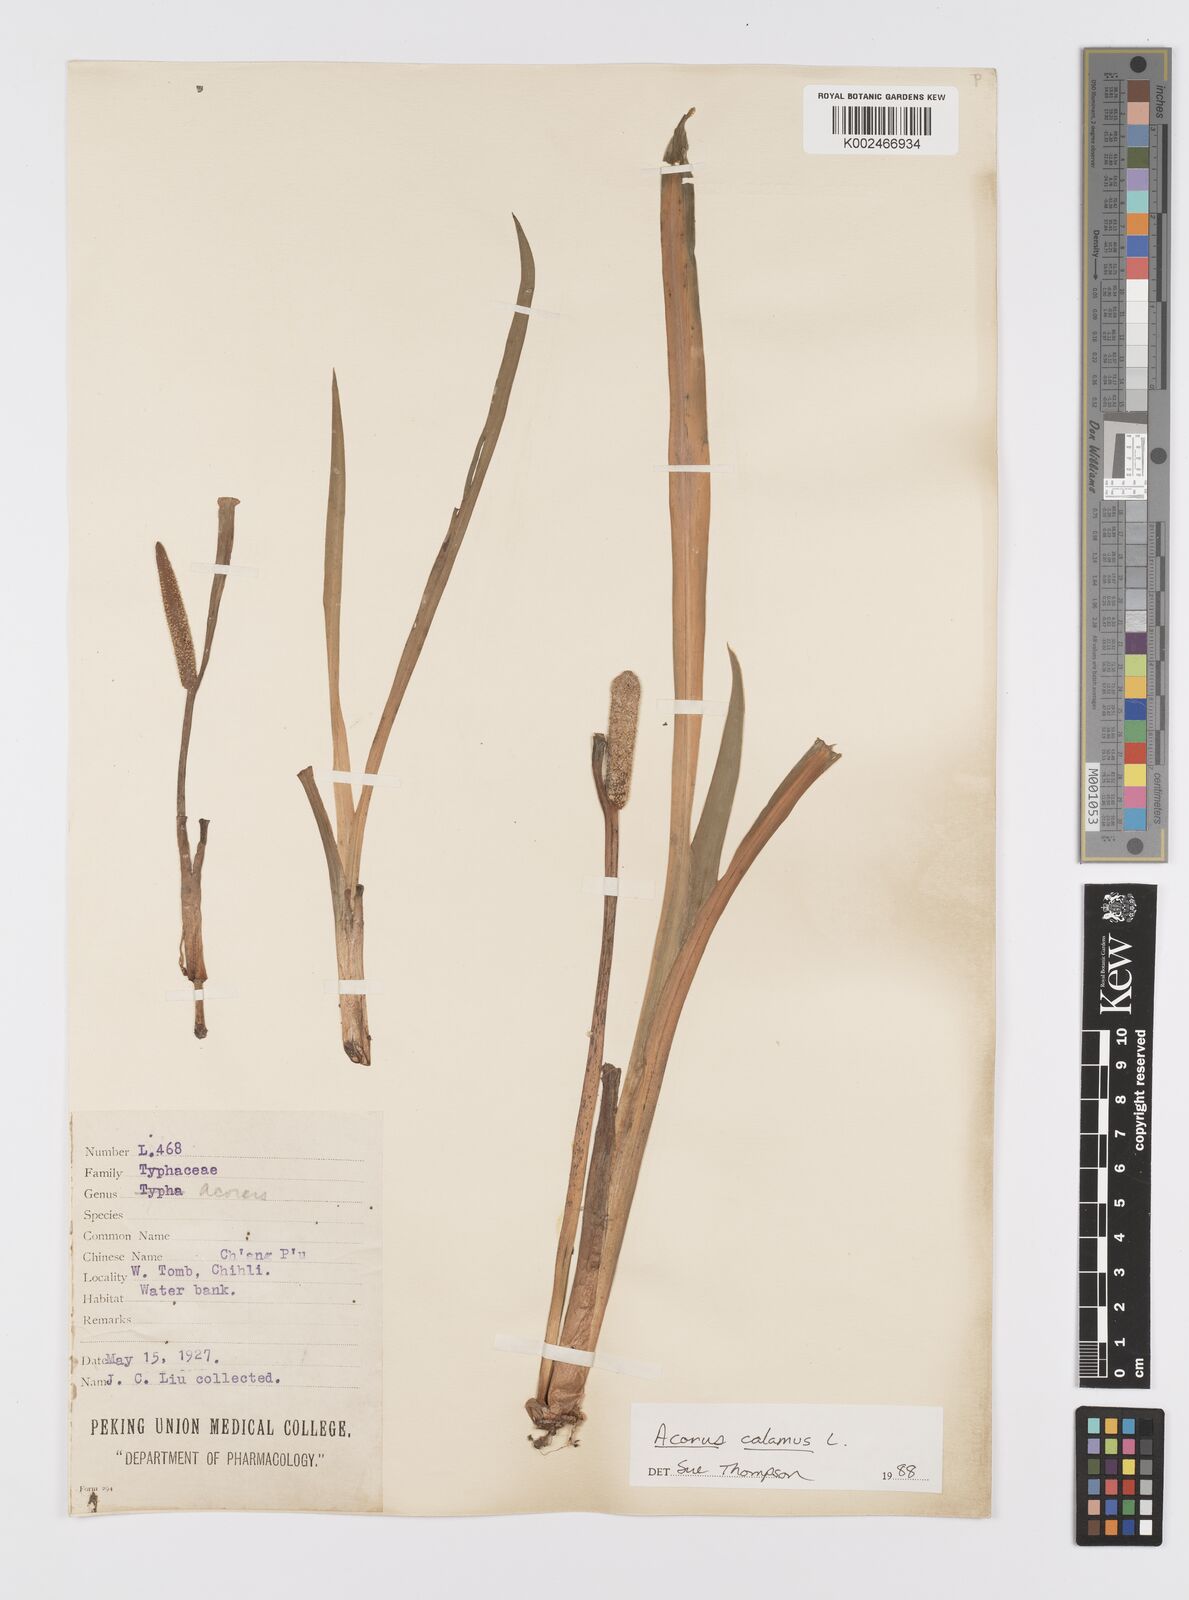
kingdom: Plantae
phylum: Tracheophyta
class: Liliopsida
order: Acorales
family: Acoraceae
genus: Acorus
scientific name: Acorus calamus
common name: Sweet-flag
